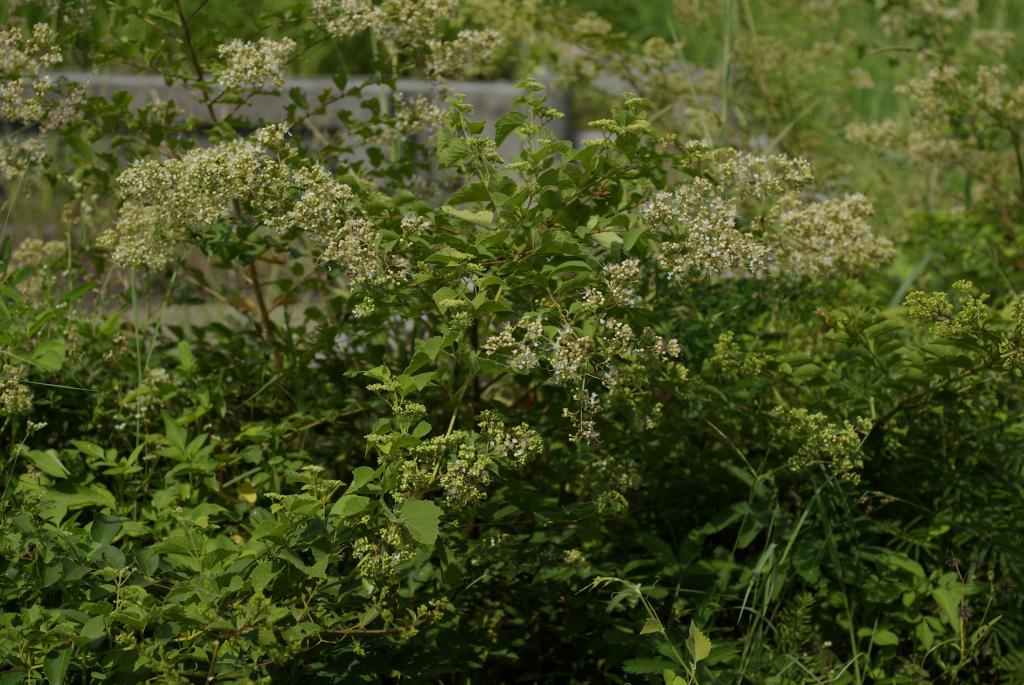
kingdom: Plantae
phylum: Tracheophyta
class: Magnoliopsida
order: Myrtales
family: Lythraceae
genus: Lagerstroemia
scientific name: Lagerstroemia subcostata
